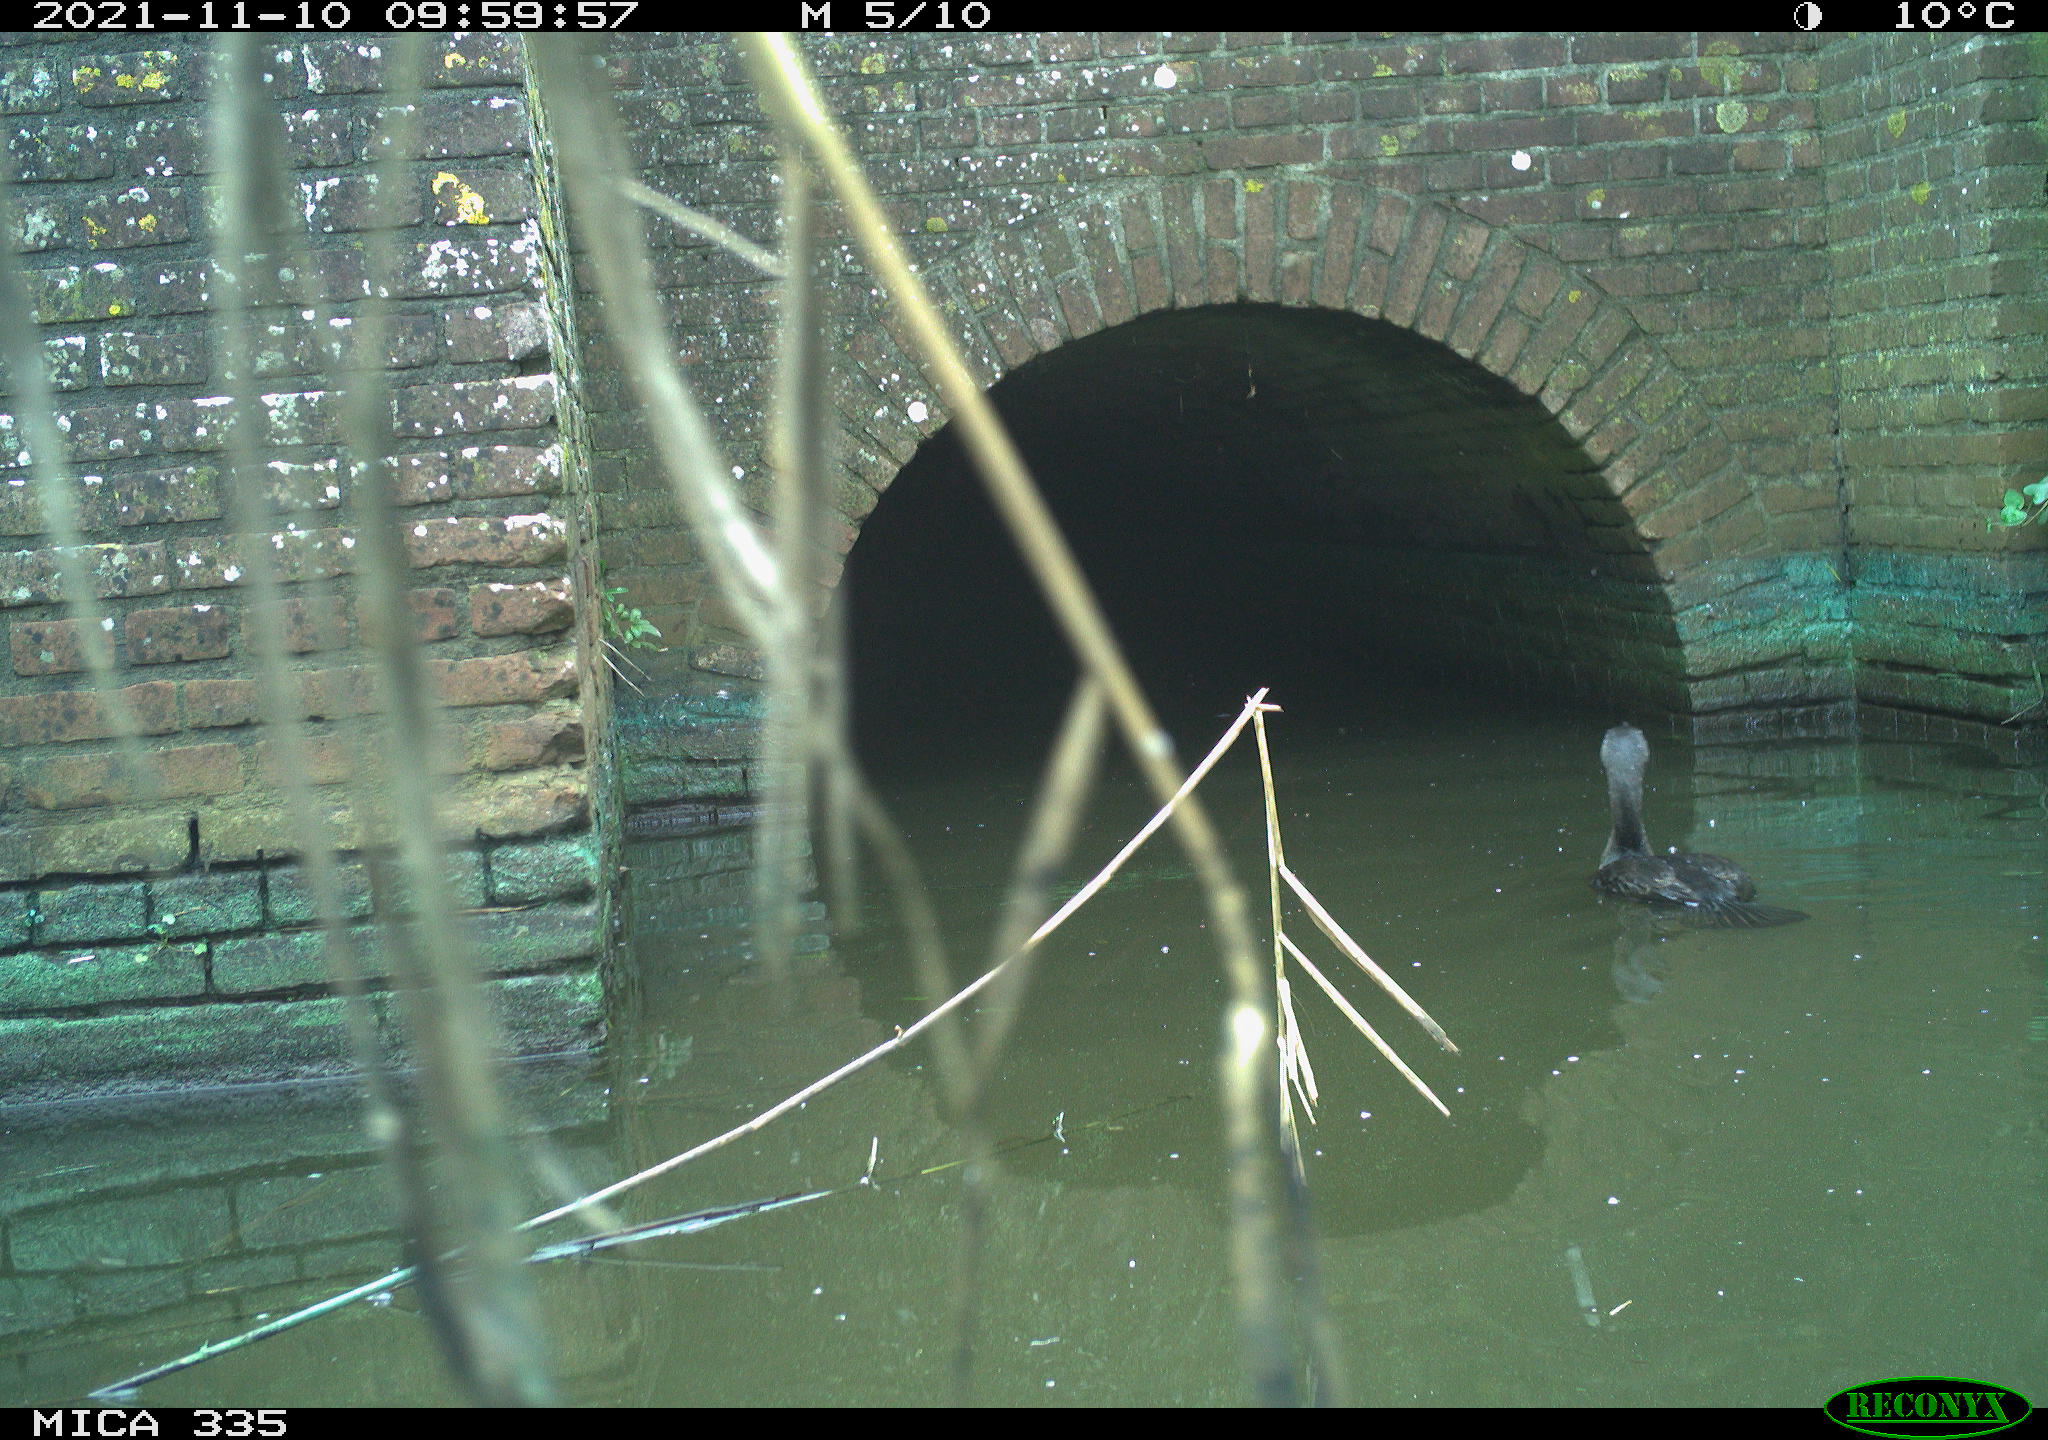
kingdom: Animalia
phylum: Chordata
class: Aves
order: Suliformes
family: Phalacrocoracidae
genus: Phalacrocorax
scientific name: Phalacrocorax carbo
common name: Great cormorant
